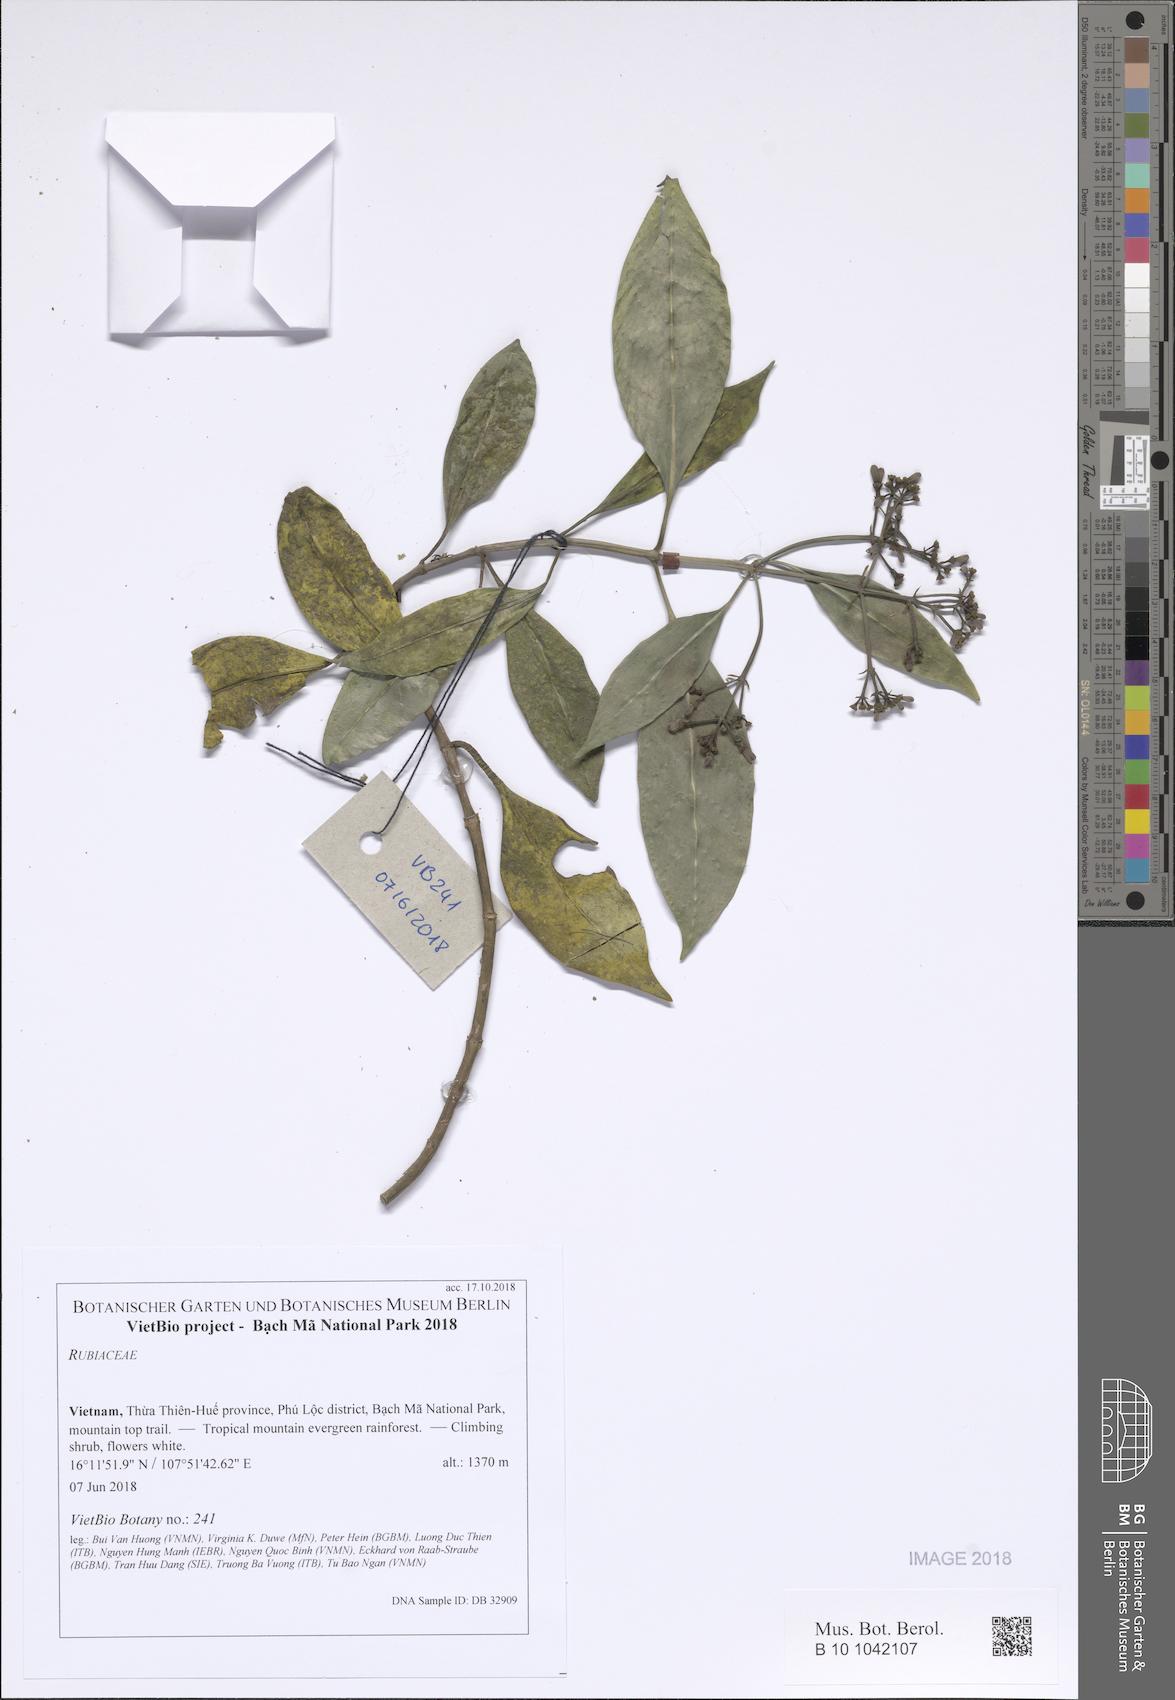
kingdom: Plantae
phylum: Tracheophyta
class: Magnoliopsida
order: Gentianales
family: Rubiaceae
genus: Psychotria
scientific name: Psychotria serpens
